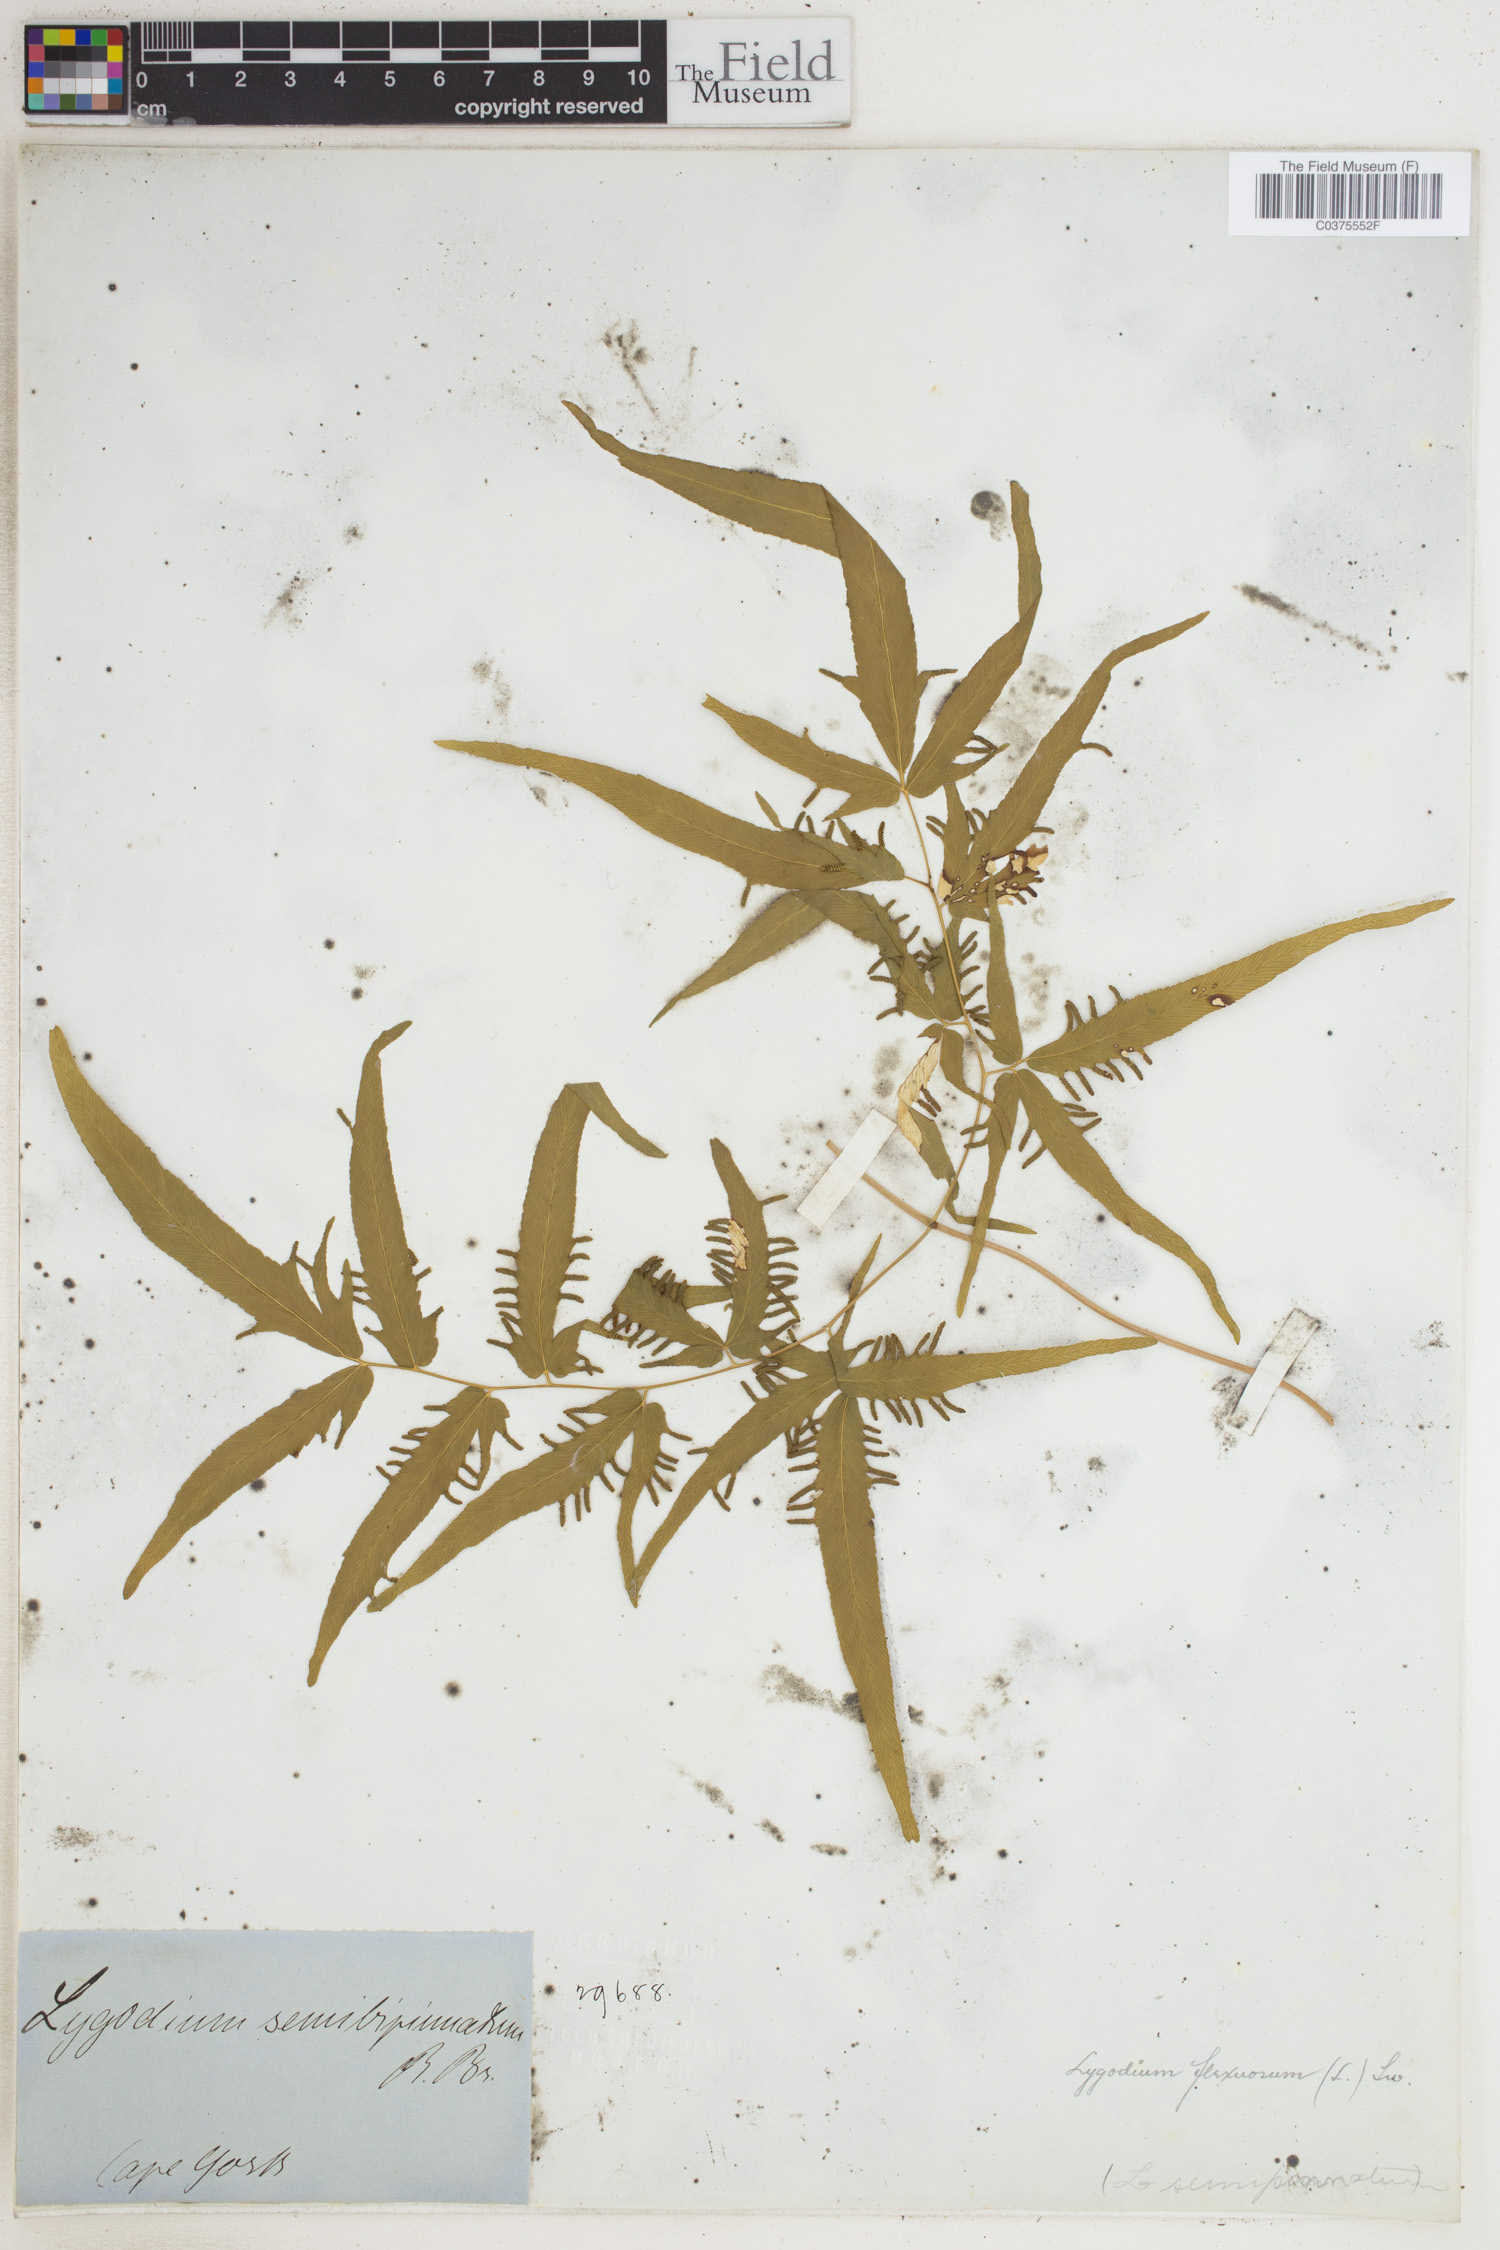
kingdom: Plantae
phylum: Tracheophyta
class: Polypodiopsida
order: Schizaeales
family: Lygodiaceae
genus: Lygodium
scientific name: Lygodium flexuosum
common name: Maidenhair creeper
